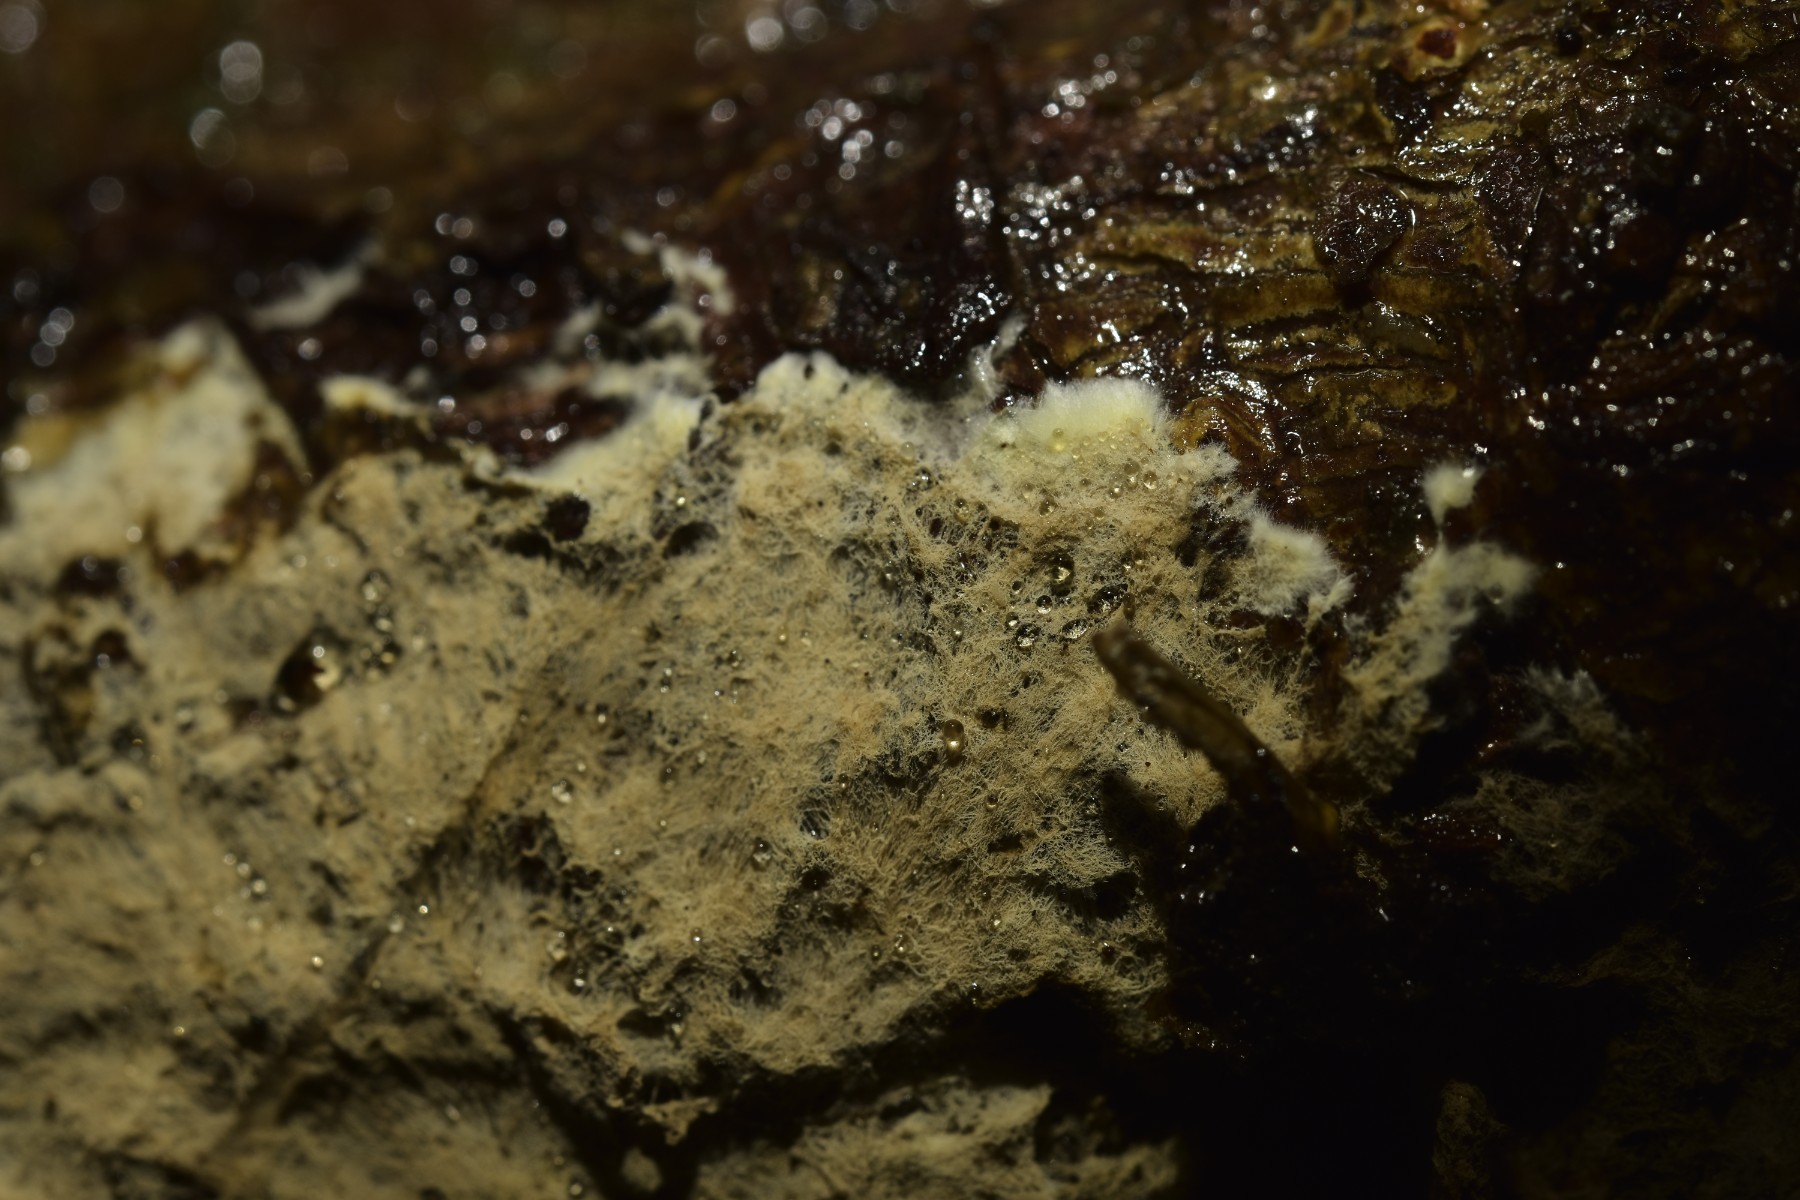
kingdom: Fungi
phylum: Basidiomycota
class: Agaricomycetes
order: Russulales
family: Xenasmataceae
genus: Xenasmatella
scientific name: Xenasmatella vaga
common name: svovl-strenghinde
